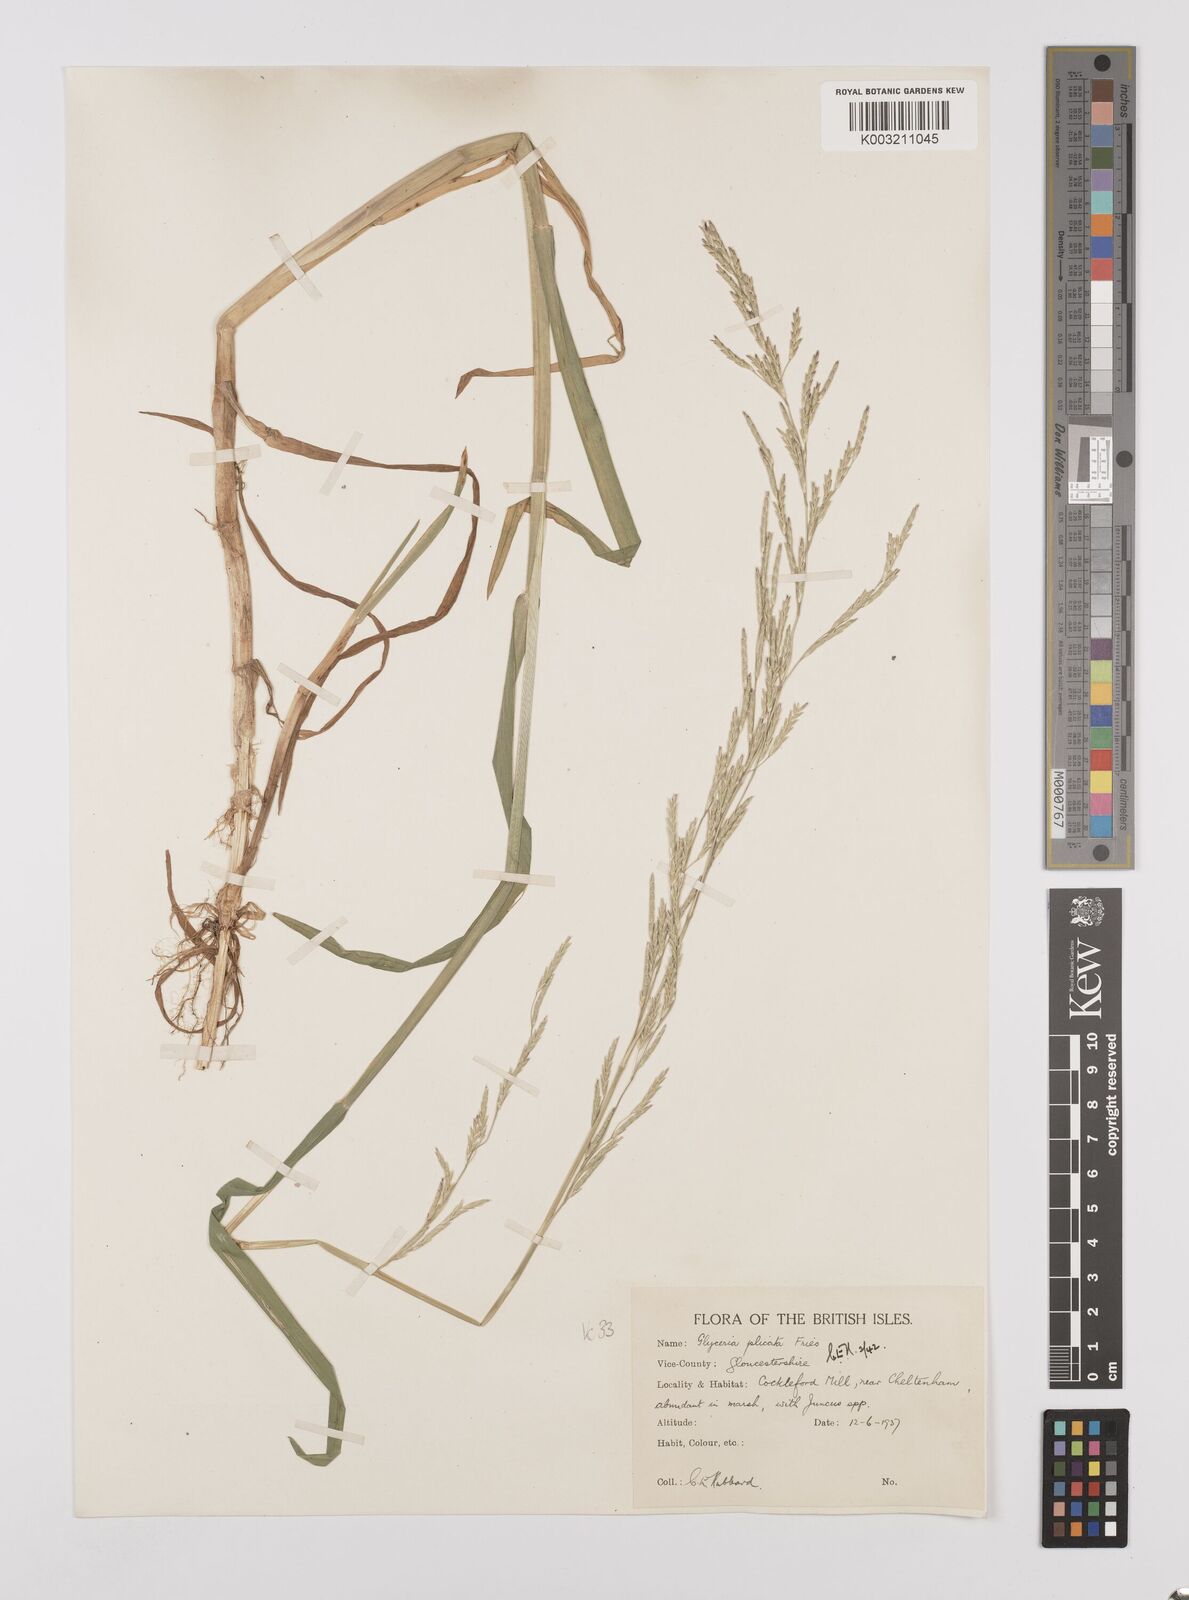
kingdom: Plantae
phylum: Tracheophyta
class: Liliopsida
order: Poales
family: Poaceae
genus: Glyceria
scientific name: Glyceria notata
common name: Plicate sweet-grass
